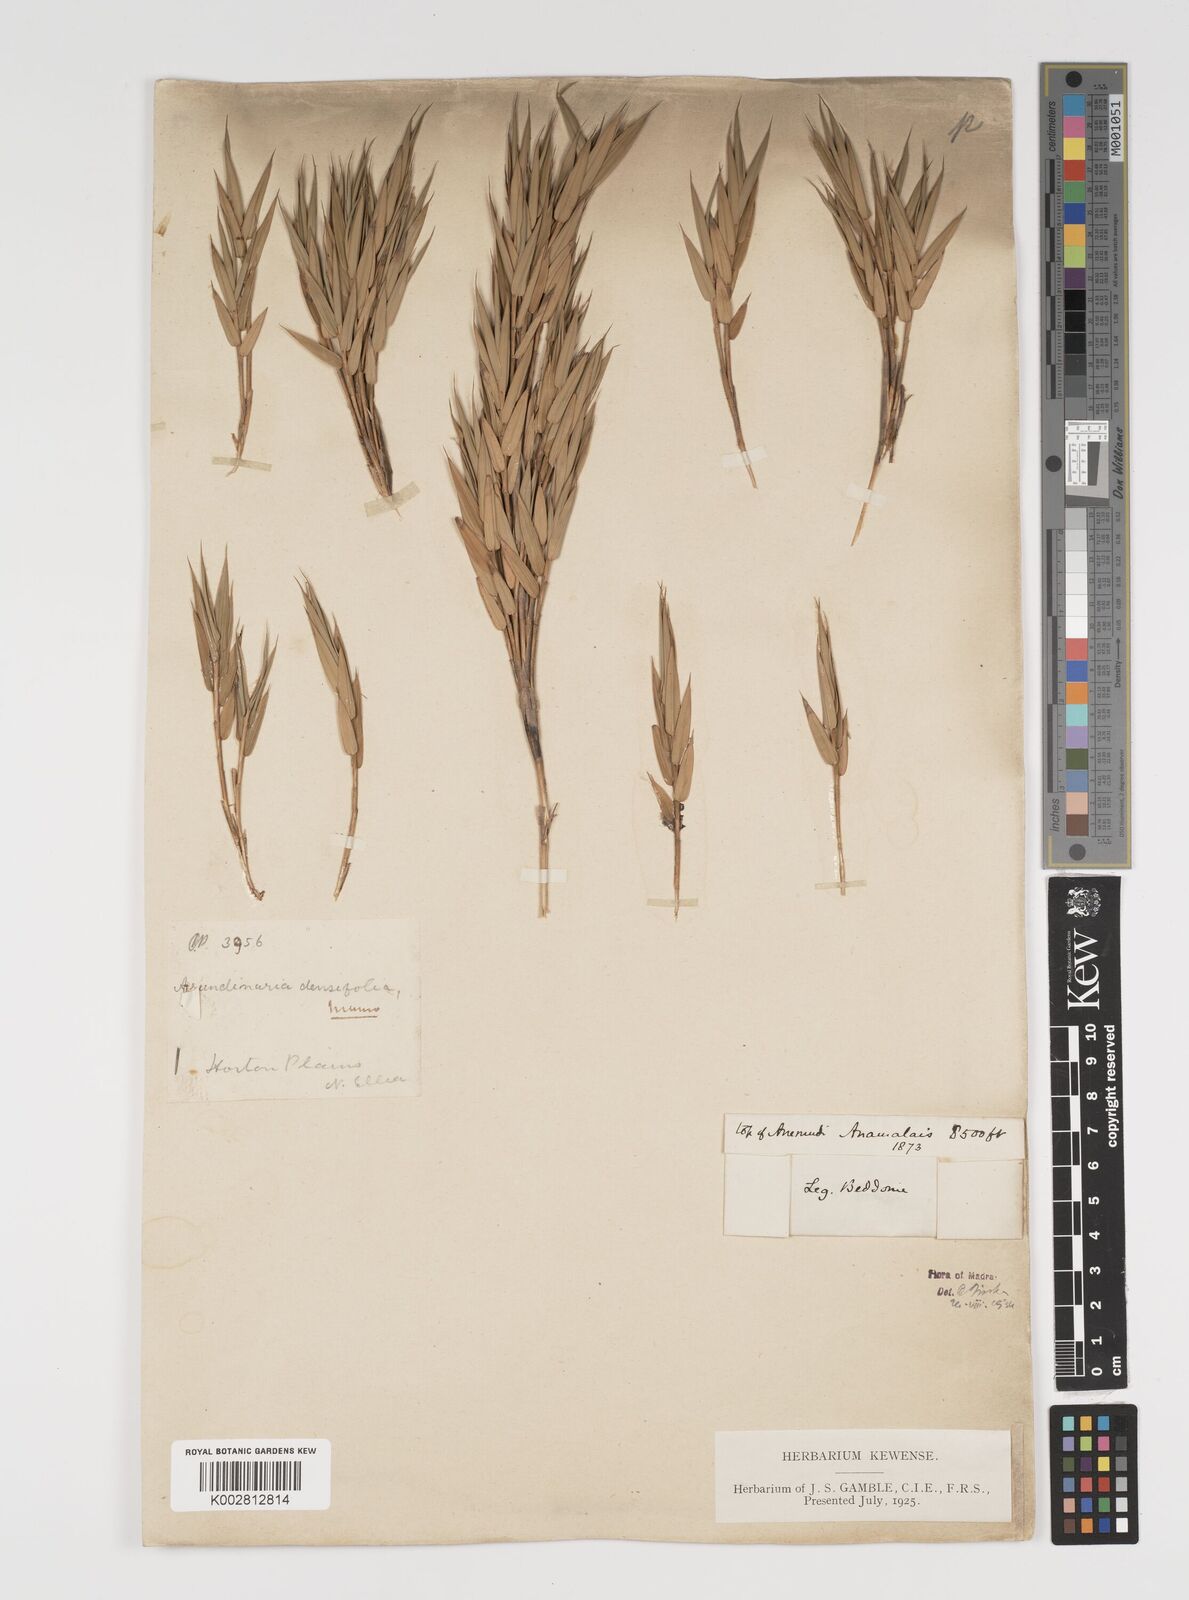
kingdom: Plantae
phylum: Tracheophyta
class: Liliopsida
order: Poales
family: Poaceae
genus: Kuruna
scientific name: Kuruna densifolia
